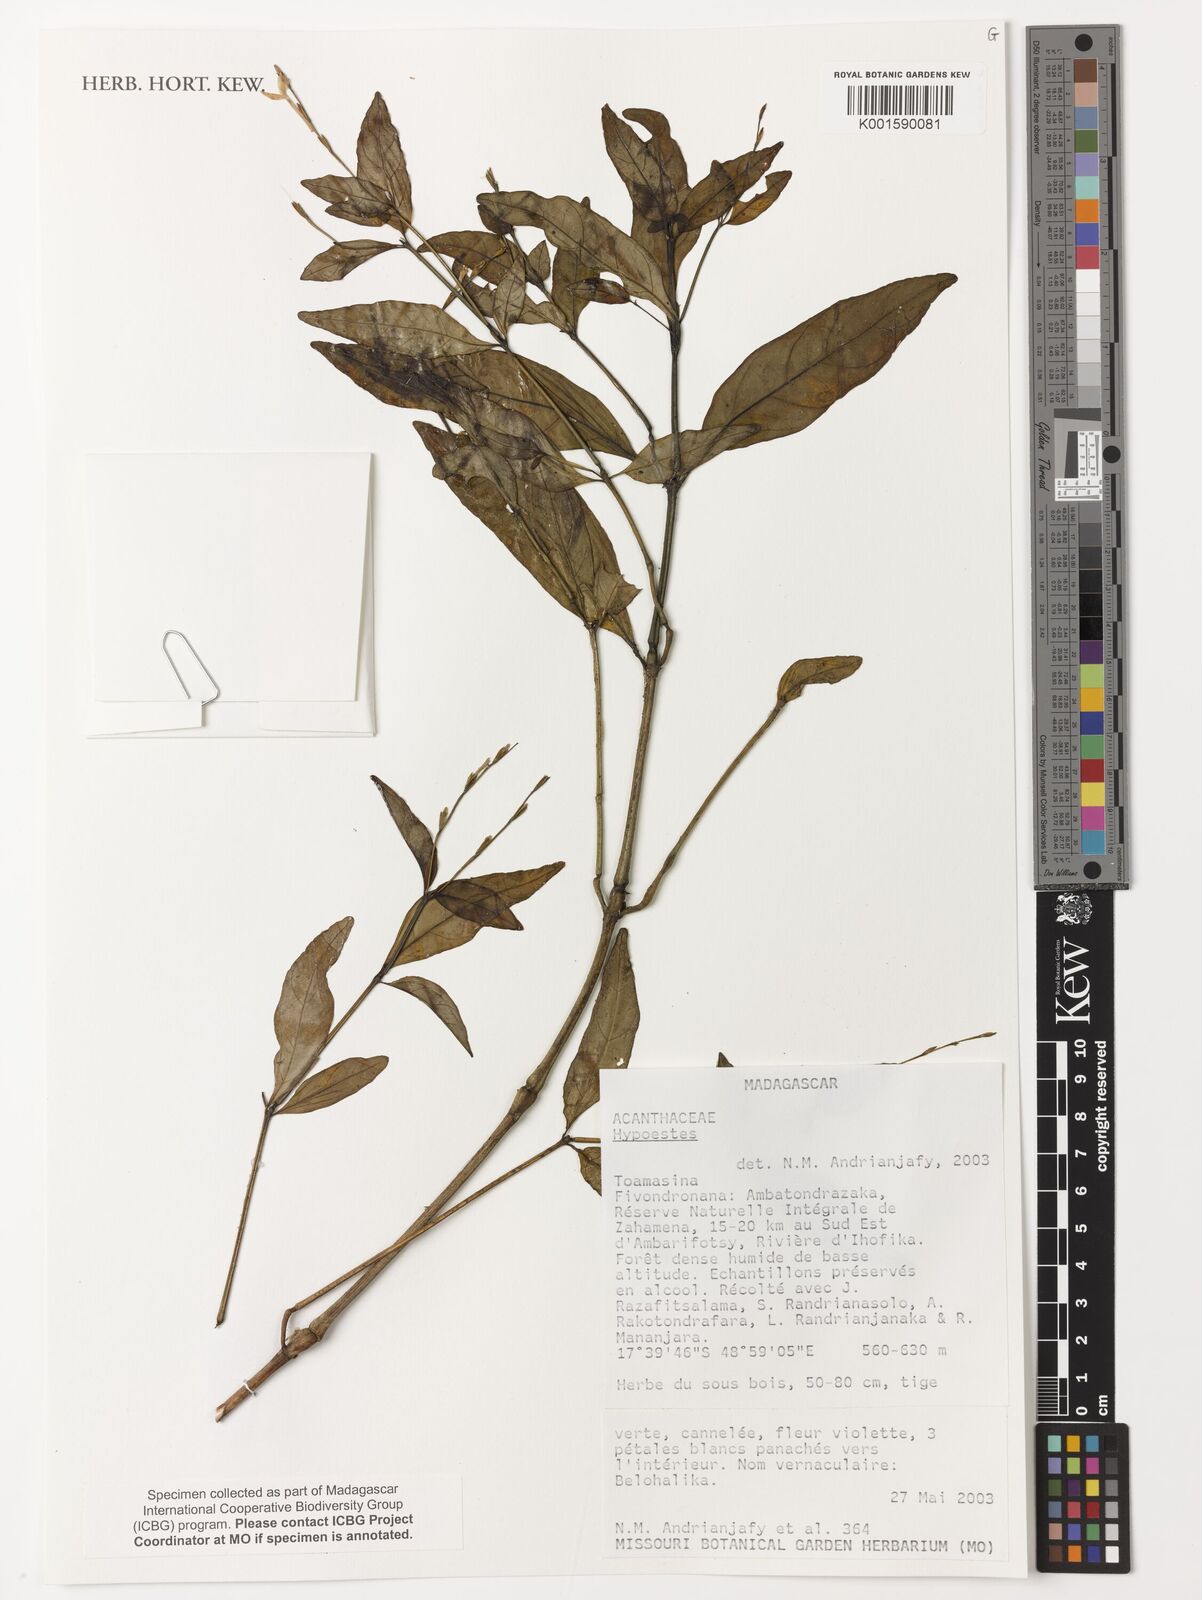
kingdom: Plantae
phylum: Tracheophyta
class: Magnoliopsida
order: Lamiales
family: Acanthaceae
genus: Hypoestes
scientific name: Hypoestes
